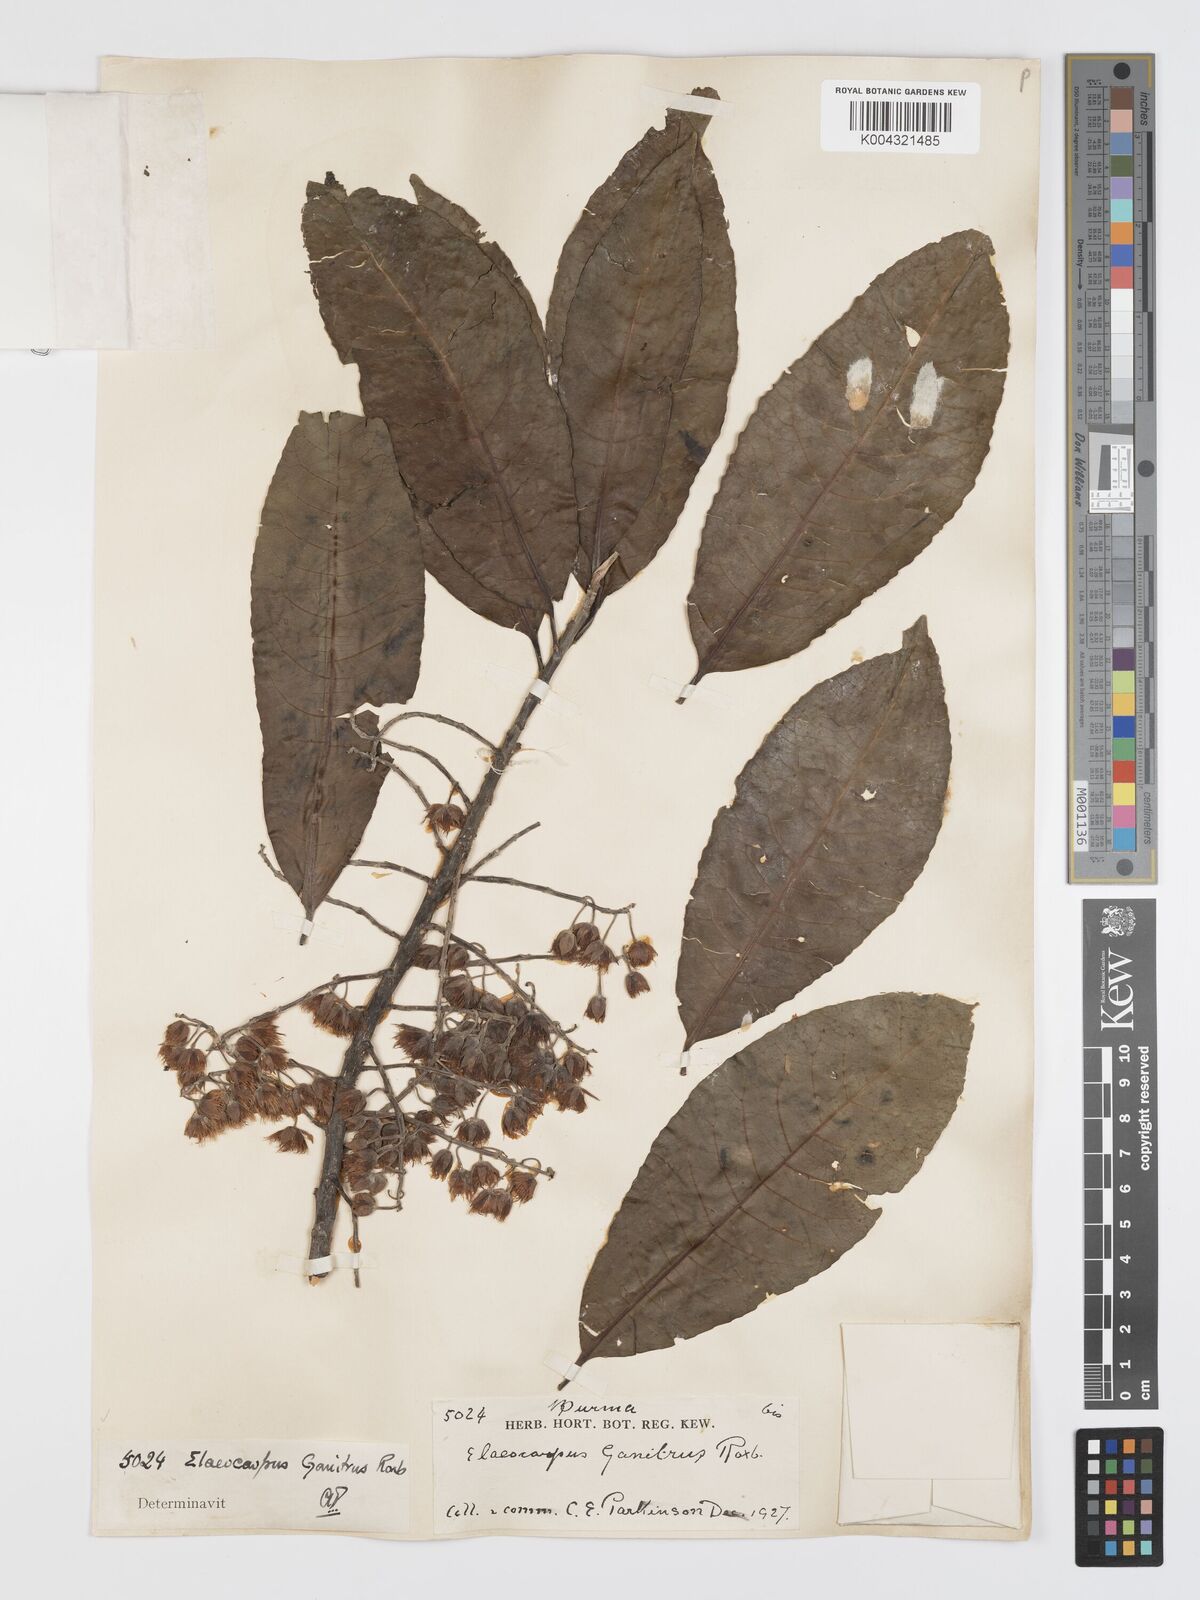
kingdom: Plantae
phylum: Tracheophyta
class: Magnoliopsida
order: Oxalidales
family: Elaeocarpaceae
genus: Elaeocarpus
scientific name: Elaeocarpus sphaericus
